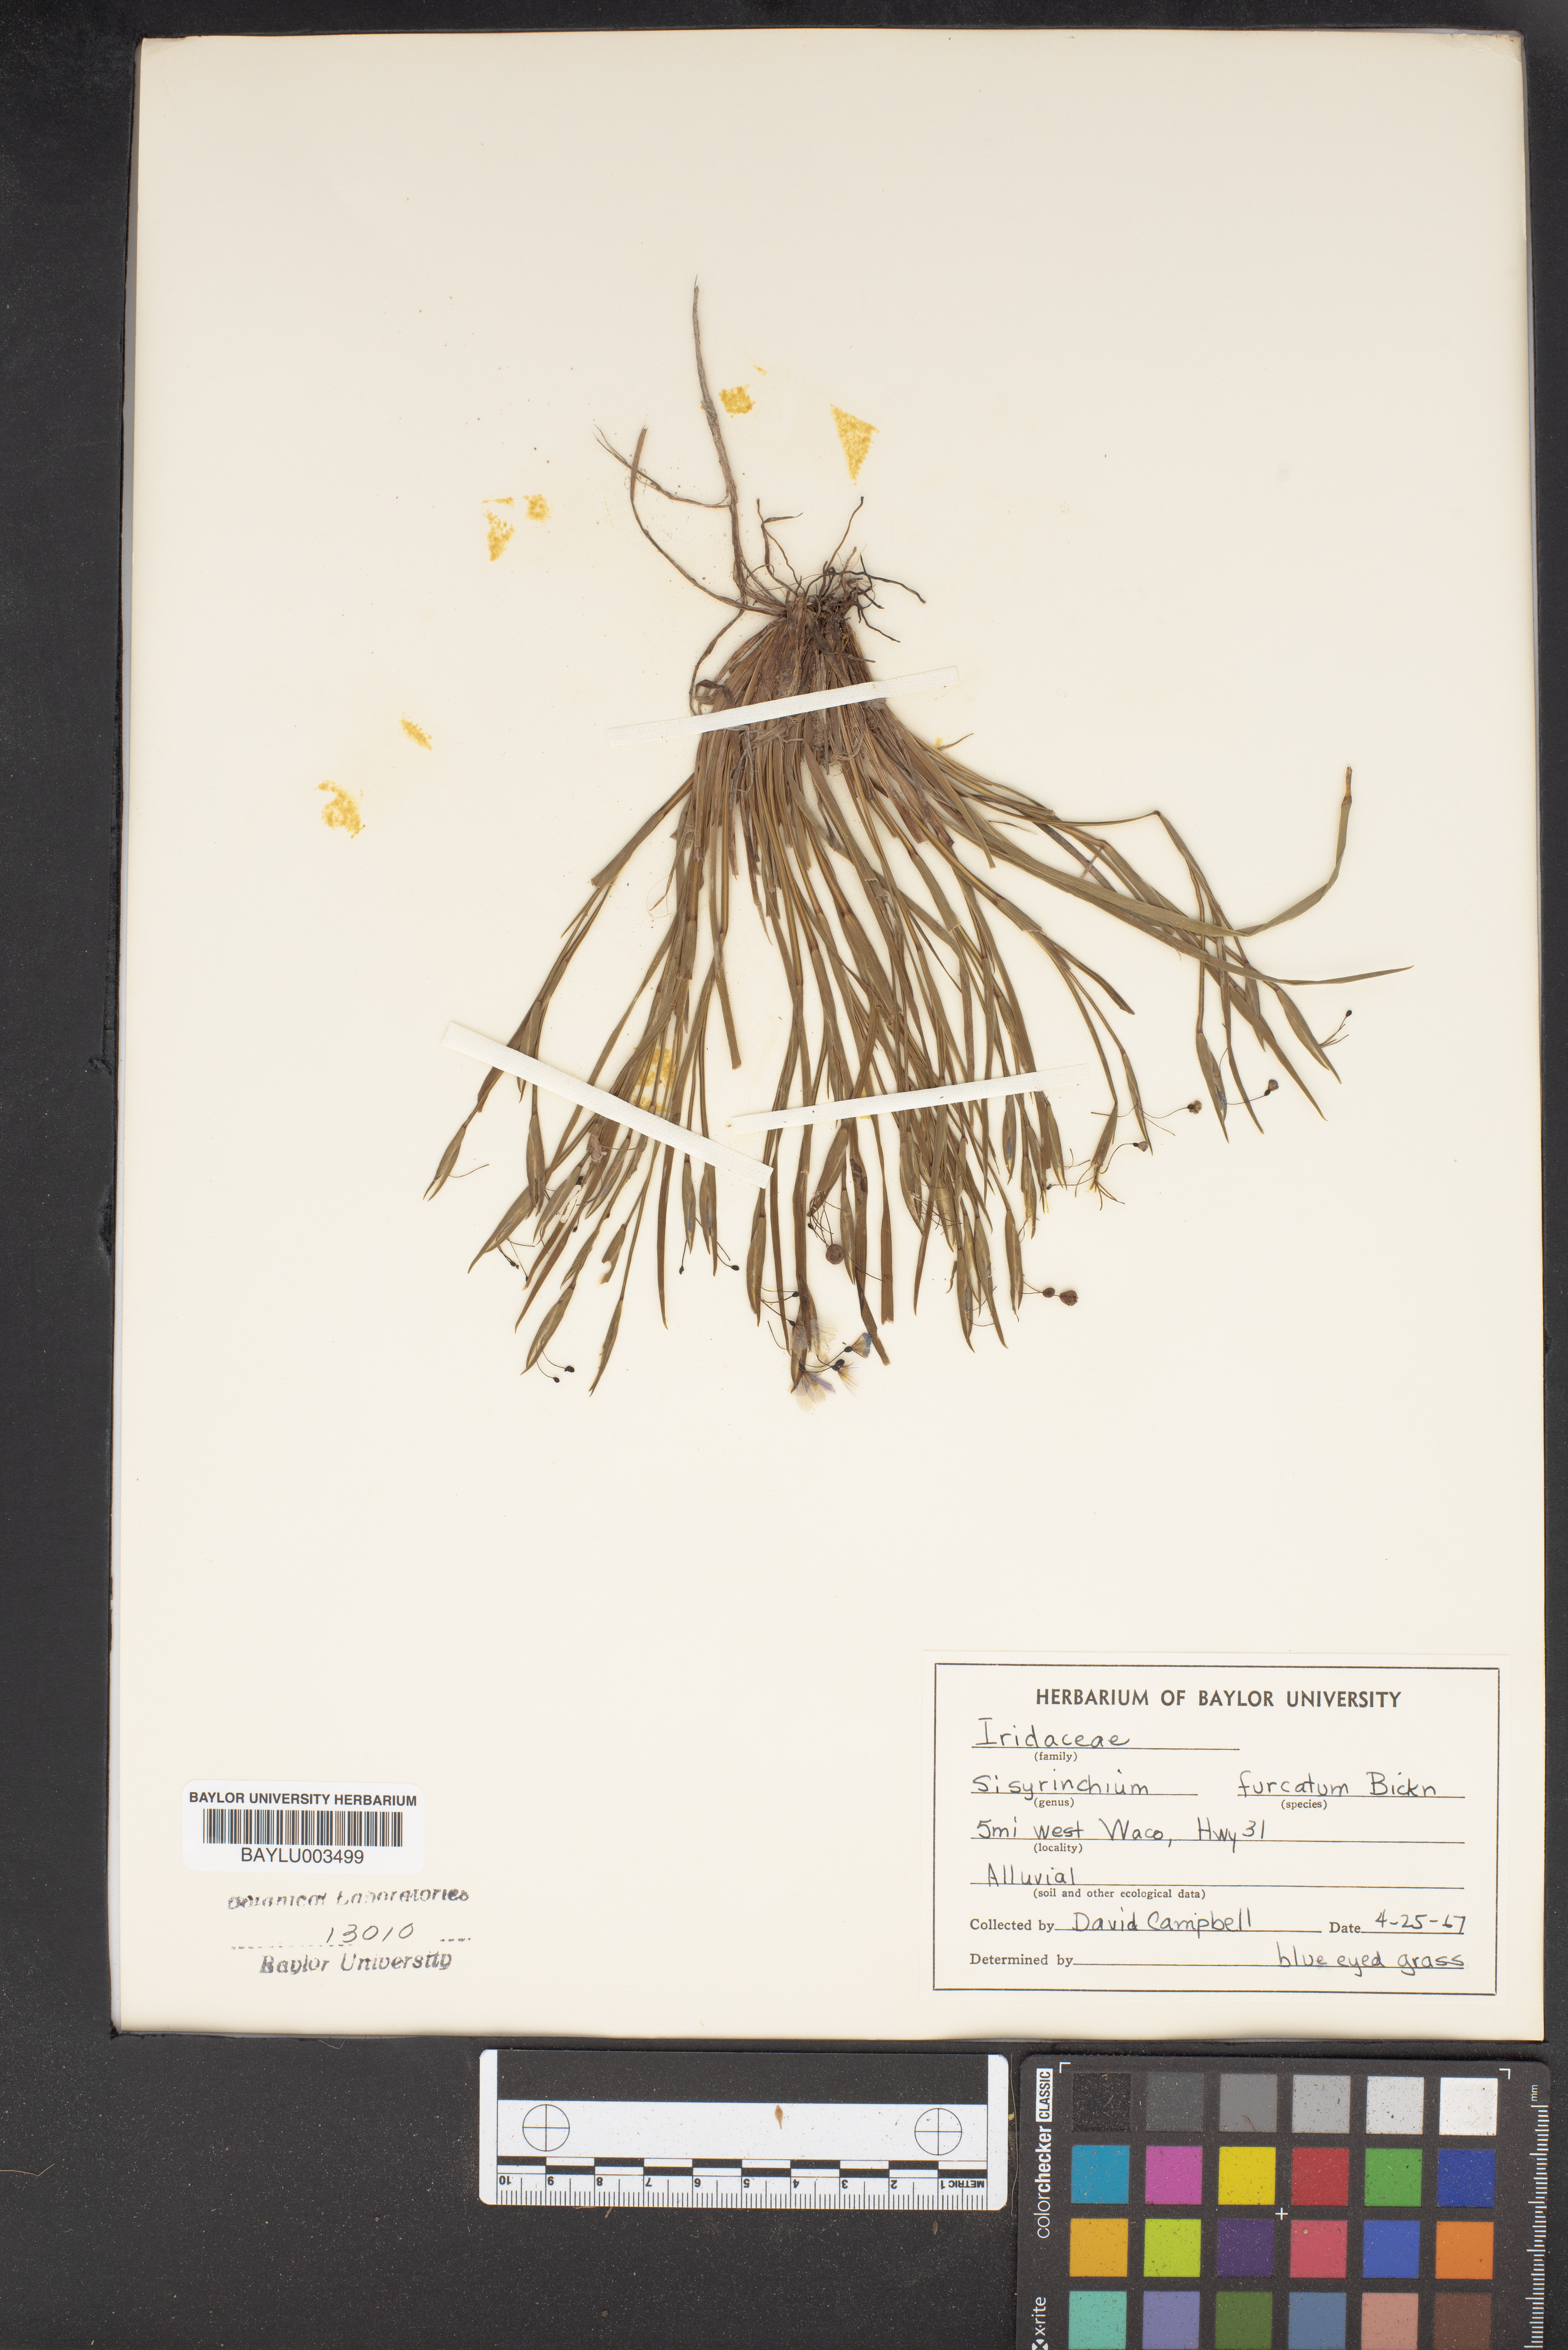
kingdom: Plantae
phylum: Tracheophyta
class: Liliopsida
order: Asparagales
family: Iridaceae
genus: Sisyrinchium
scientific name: Sisyrinchium
